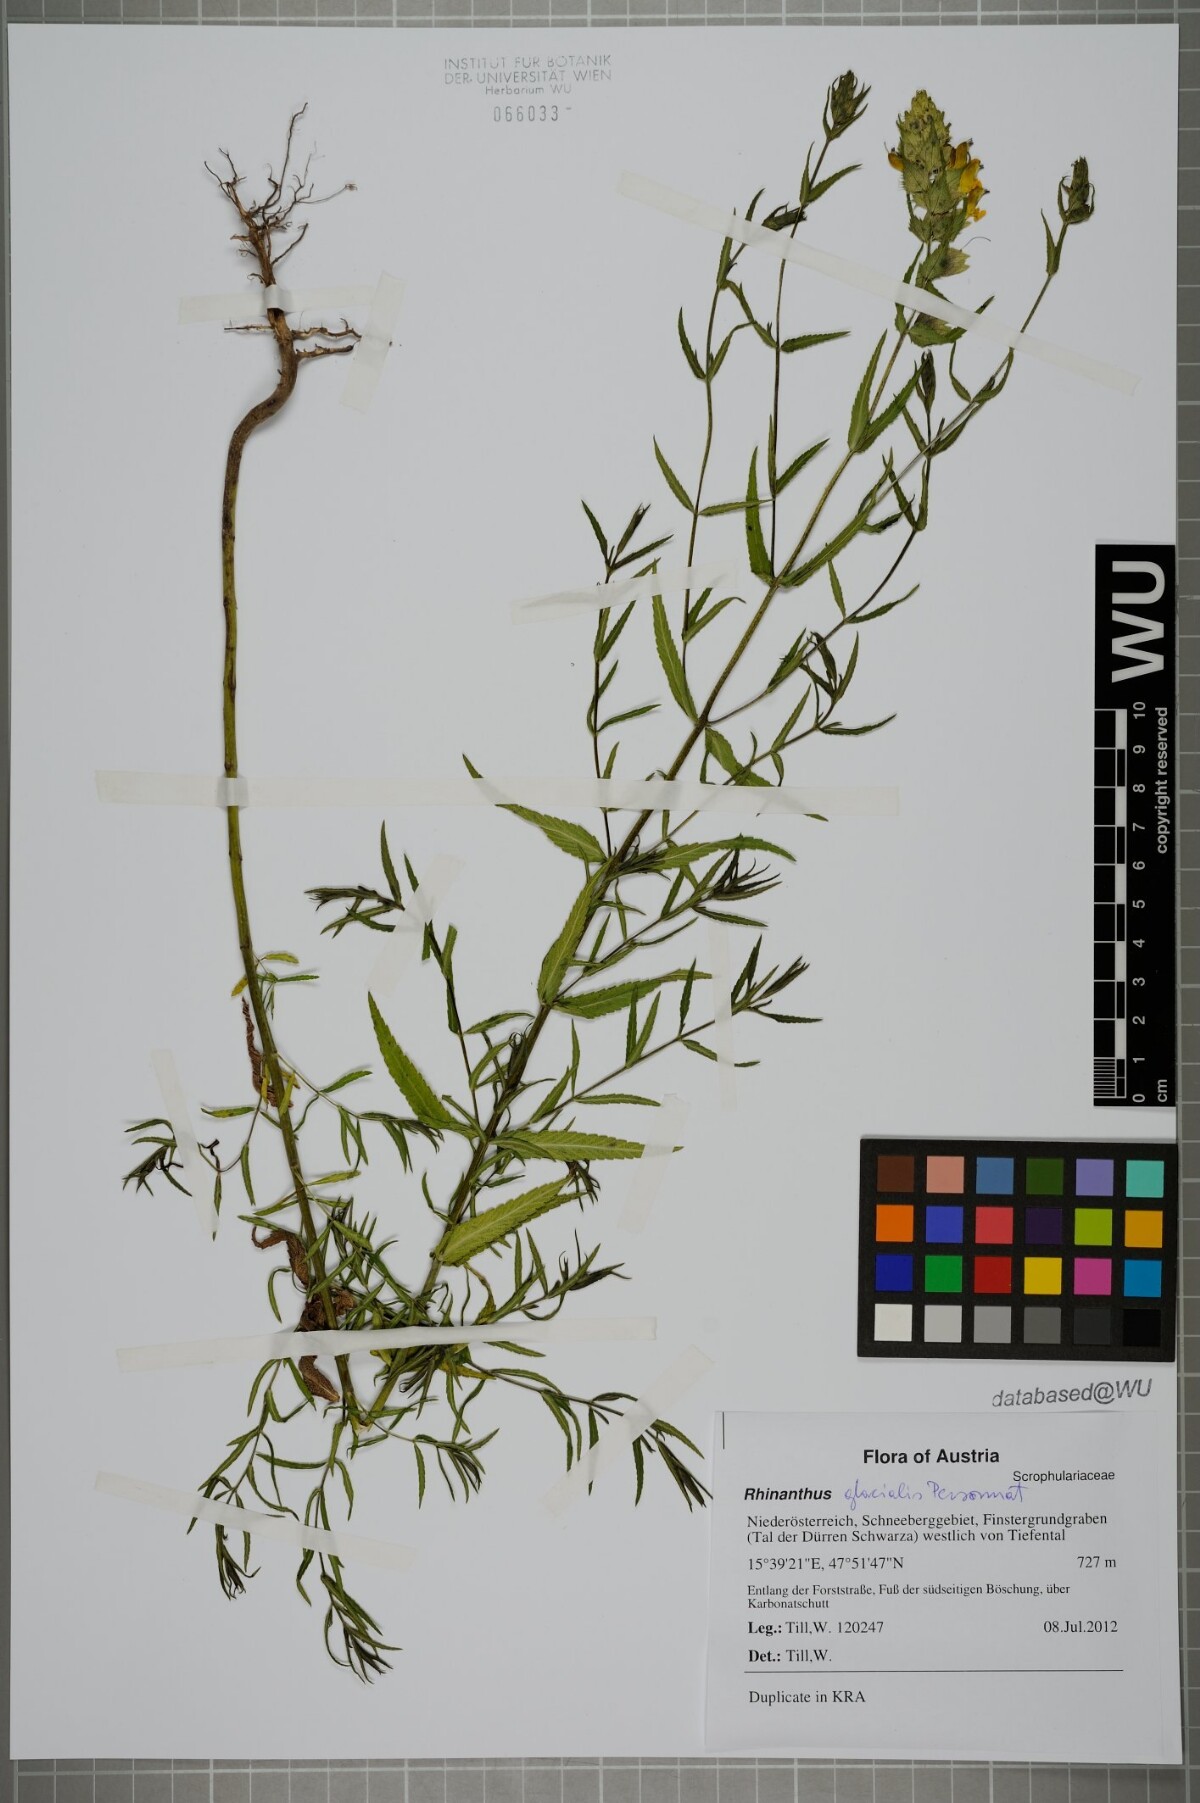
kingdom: Plantae
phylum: Tracheophyta
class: Magnoliopsida
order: Lamiales
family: Orobanchaceae
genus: Rhinanthus
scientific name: Rhinanthus glacialis
